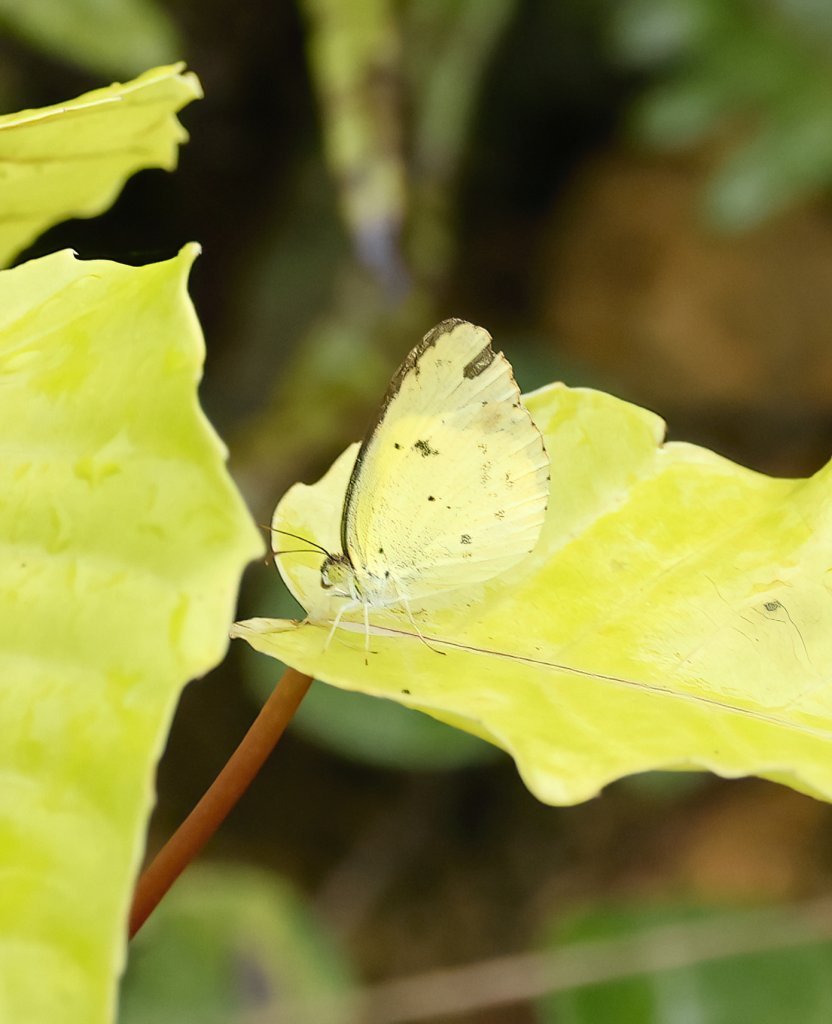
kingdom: Animalia
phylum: Arthropoda
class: Insecta
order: Lepidoptera
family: Pieridae
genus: Pyrisitia
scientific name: Pyrisitia lisa
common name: Little Yellow
